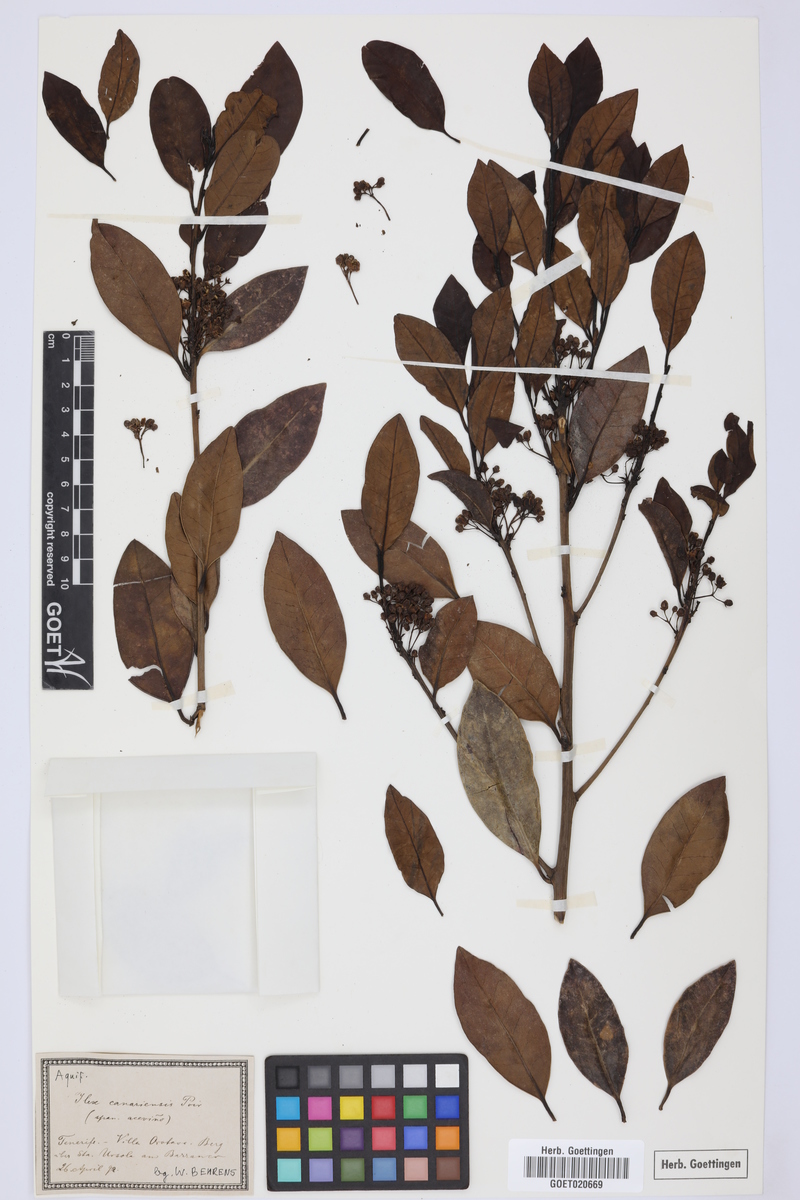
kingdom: Plantae
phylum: Tracheophyta
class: Magnoliopsida
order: Aquifoliales
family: Aquifoliaceae
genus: Ilex
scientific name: Ilex canariensis
